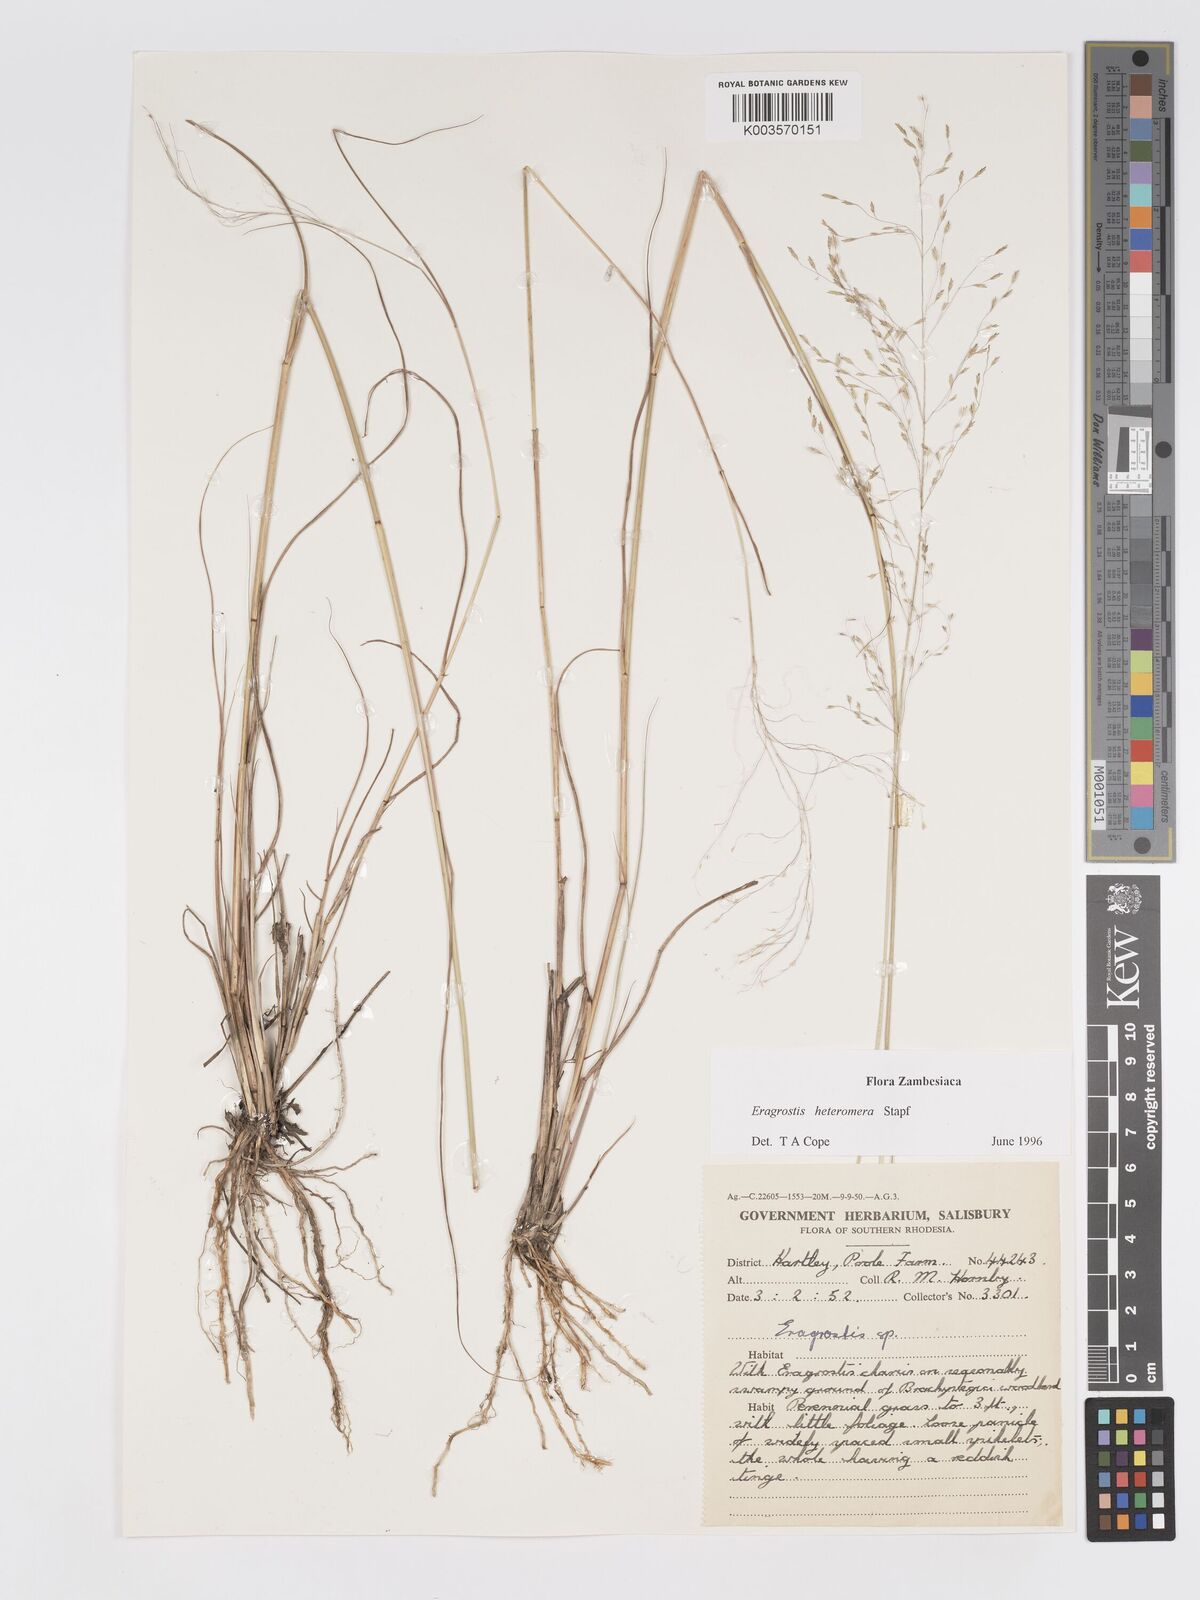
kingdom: Plantae
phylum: Tracheophyta
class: Liliopsida
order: Poales
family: Poaceae
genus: Eragrostis
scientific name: Eragrostis heteromera
